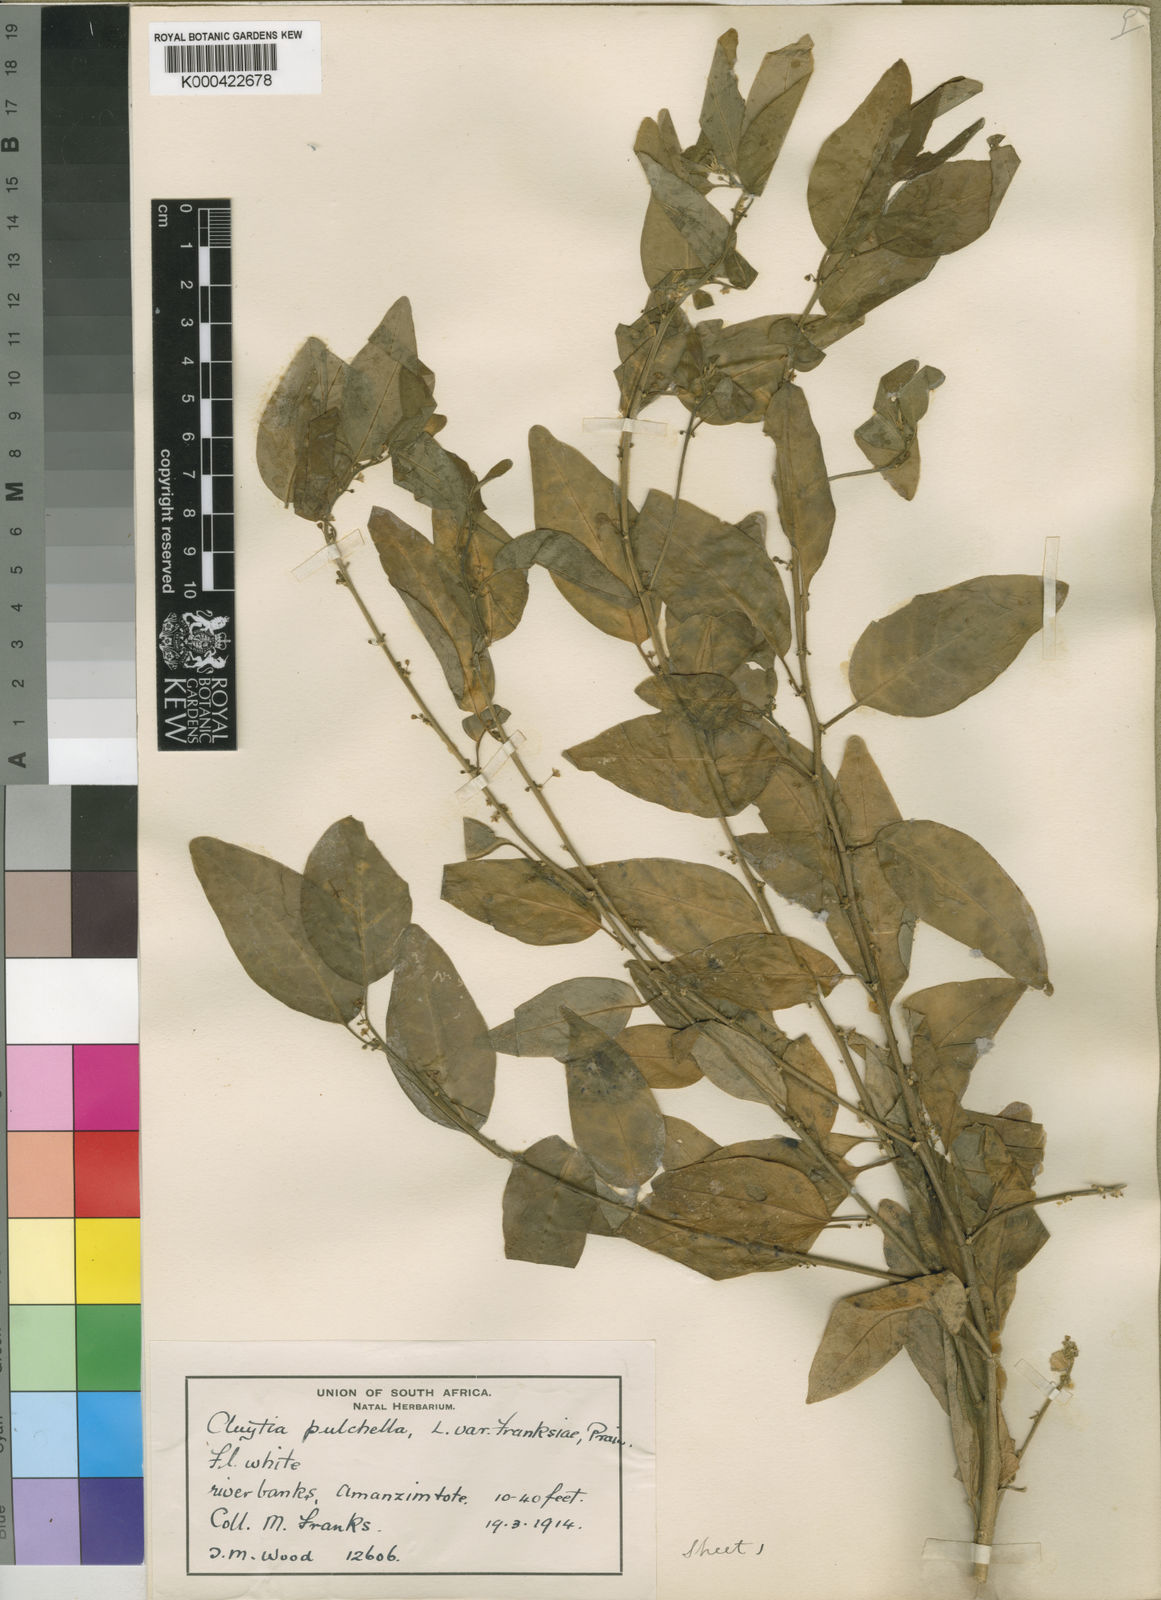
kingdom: Plantae
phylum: Tracheophyta
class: Magnoliopsida
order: Malpighiales
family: Peraceae
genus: Clutia
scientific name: Clutia pulchella
